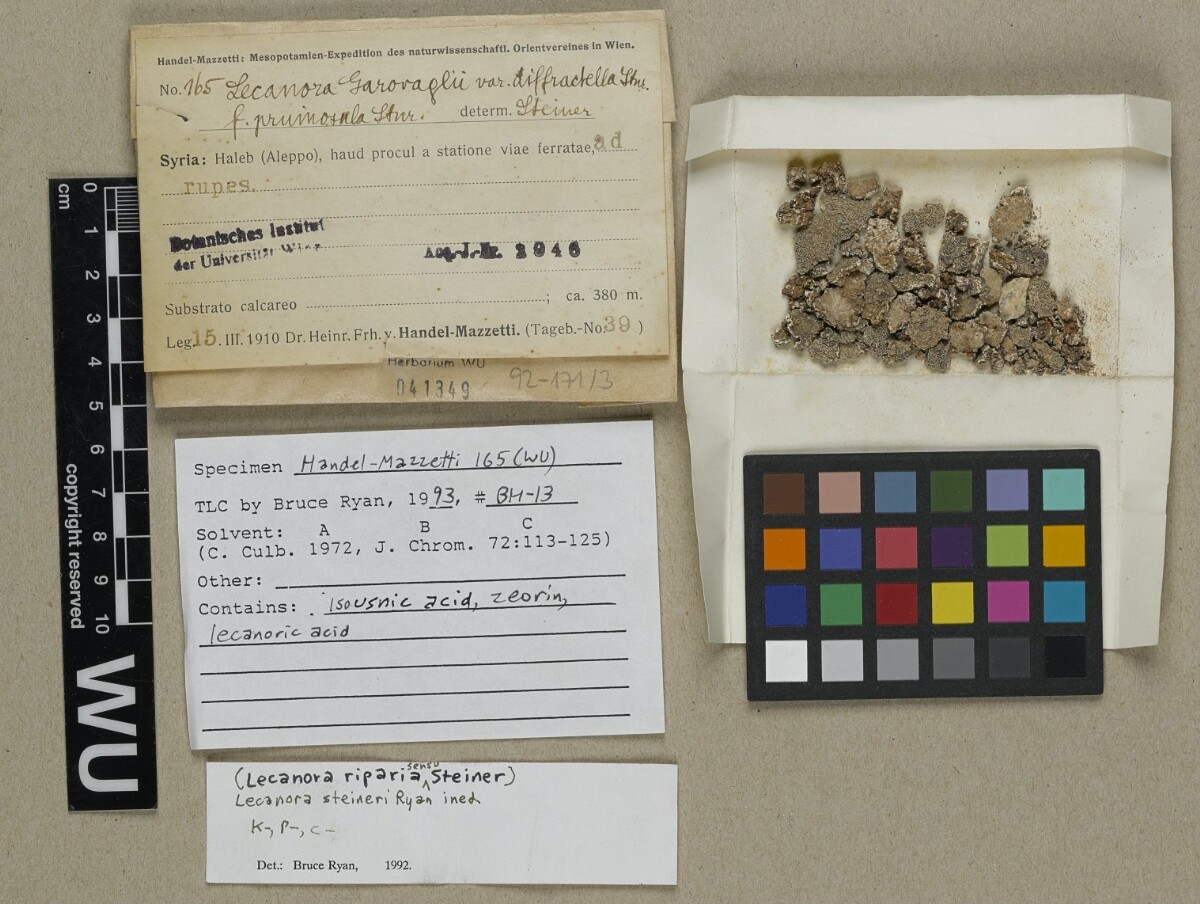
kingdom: Fungi
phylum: Ascomycota
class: Lecanoromycetes
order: Lecanorales
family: Lecanoraceae
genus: Protoparmeliopsis
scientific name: Protoparmeliopsis garovaglii
